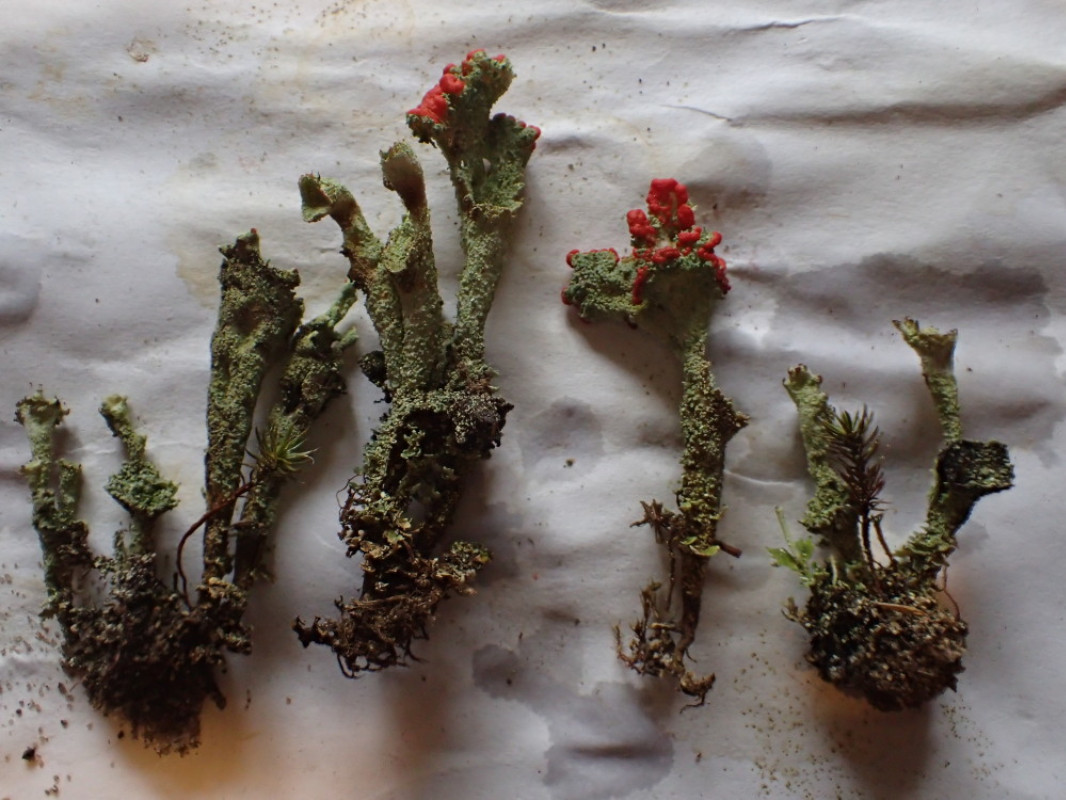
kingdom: Fungi
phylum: Ascomycota
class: Lecanoromycetes
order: Lecanorales
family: Cladoniaceae
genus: Cladonia
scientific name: Cladonia diversa
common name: rød bægerlav
